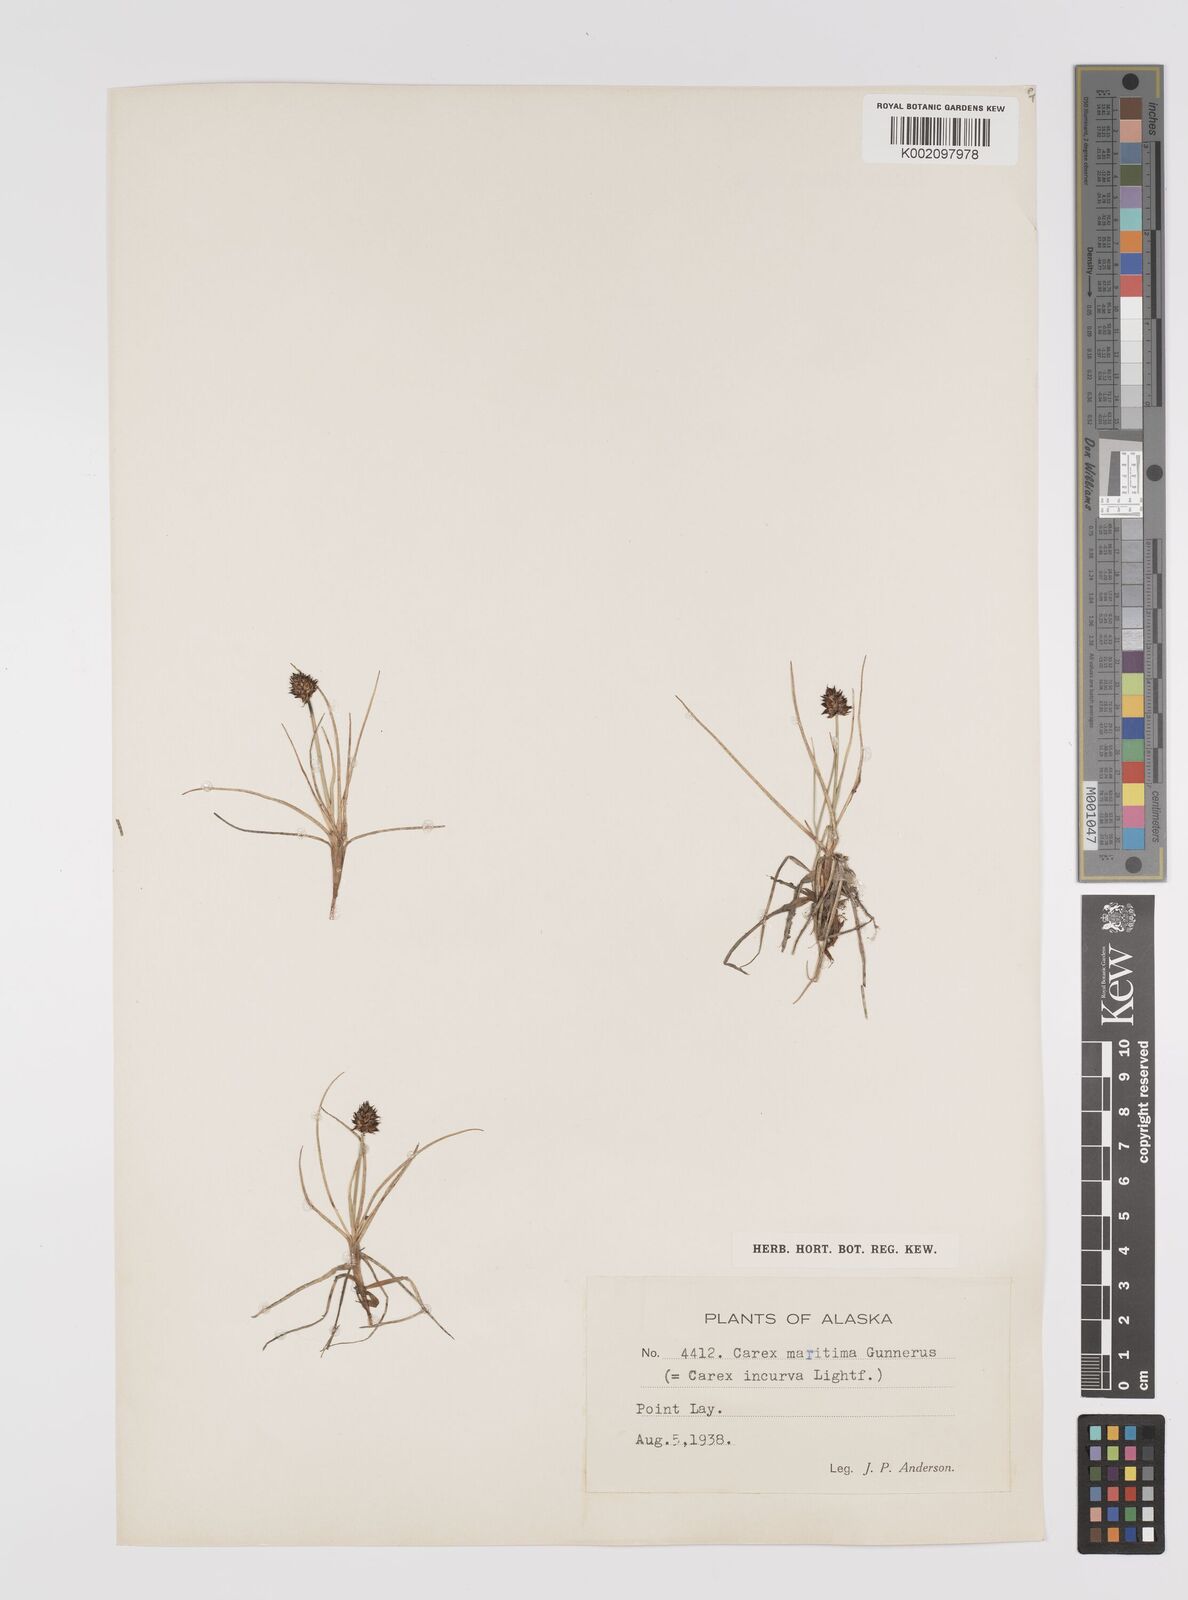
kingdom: Plantae
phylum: Tracheophyta
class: Liliopsida
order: Poales
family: Cyperaceae
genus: Carex
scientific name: Carex maritima
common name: Curved sedge
